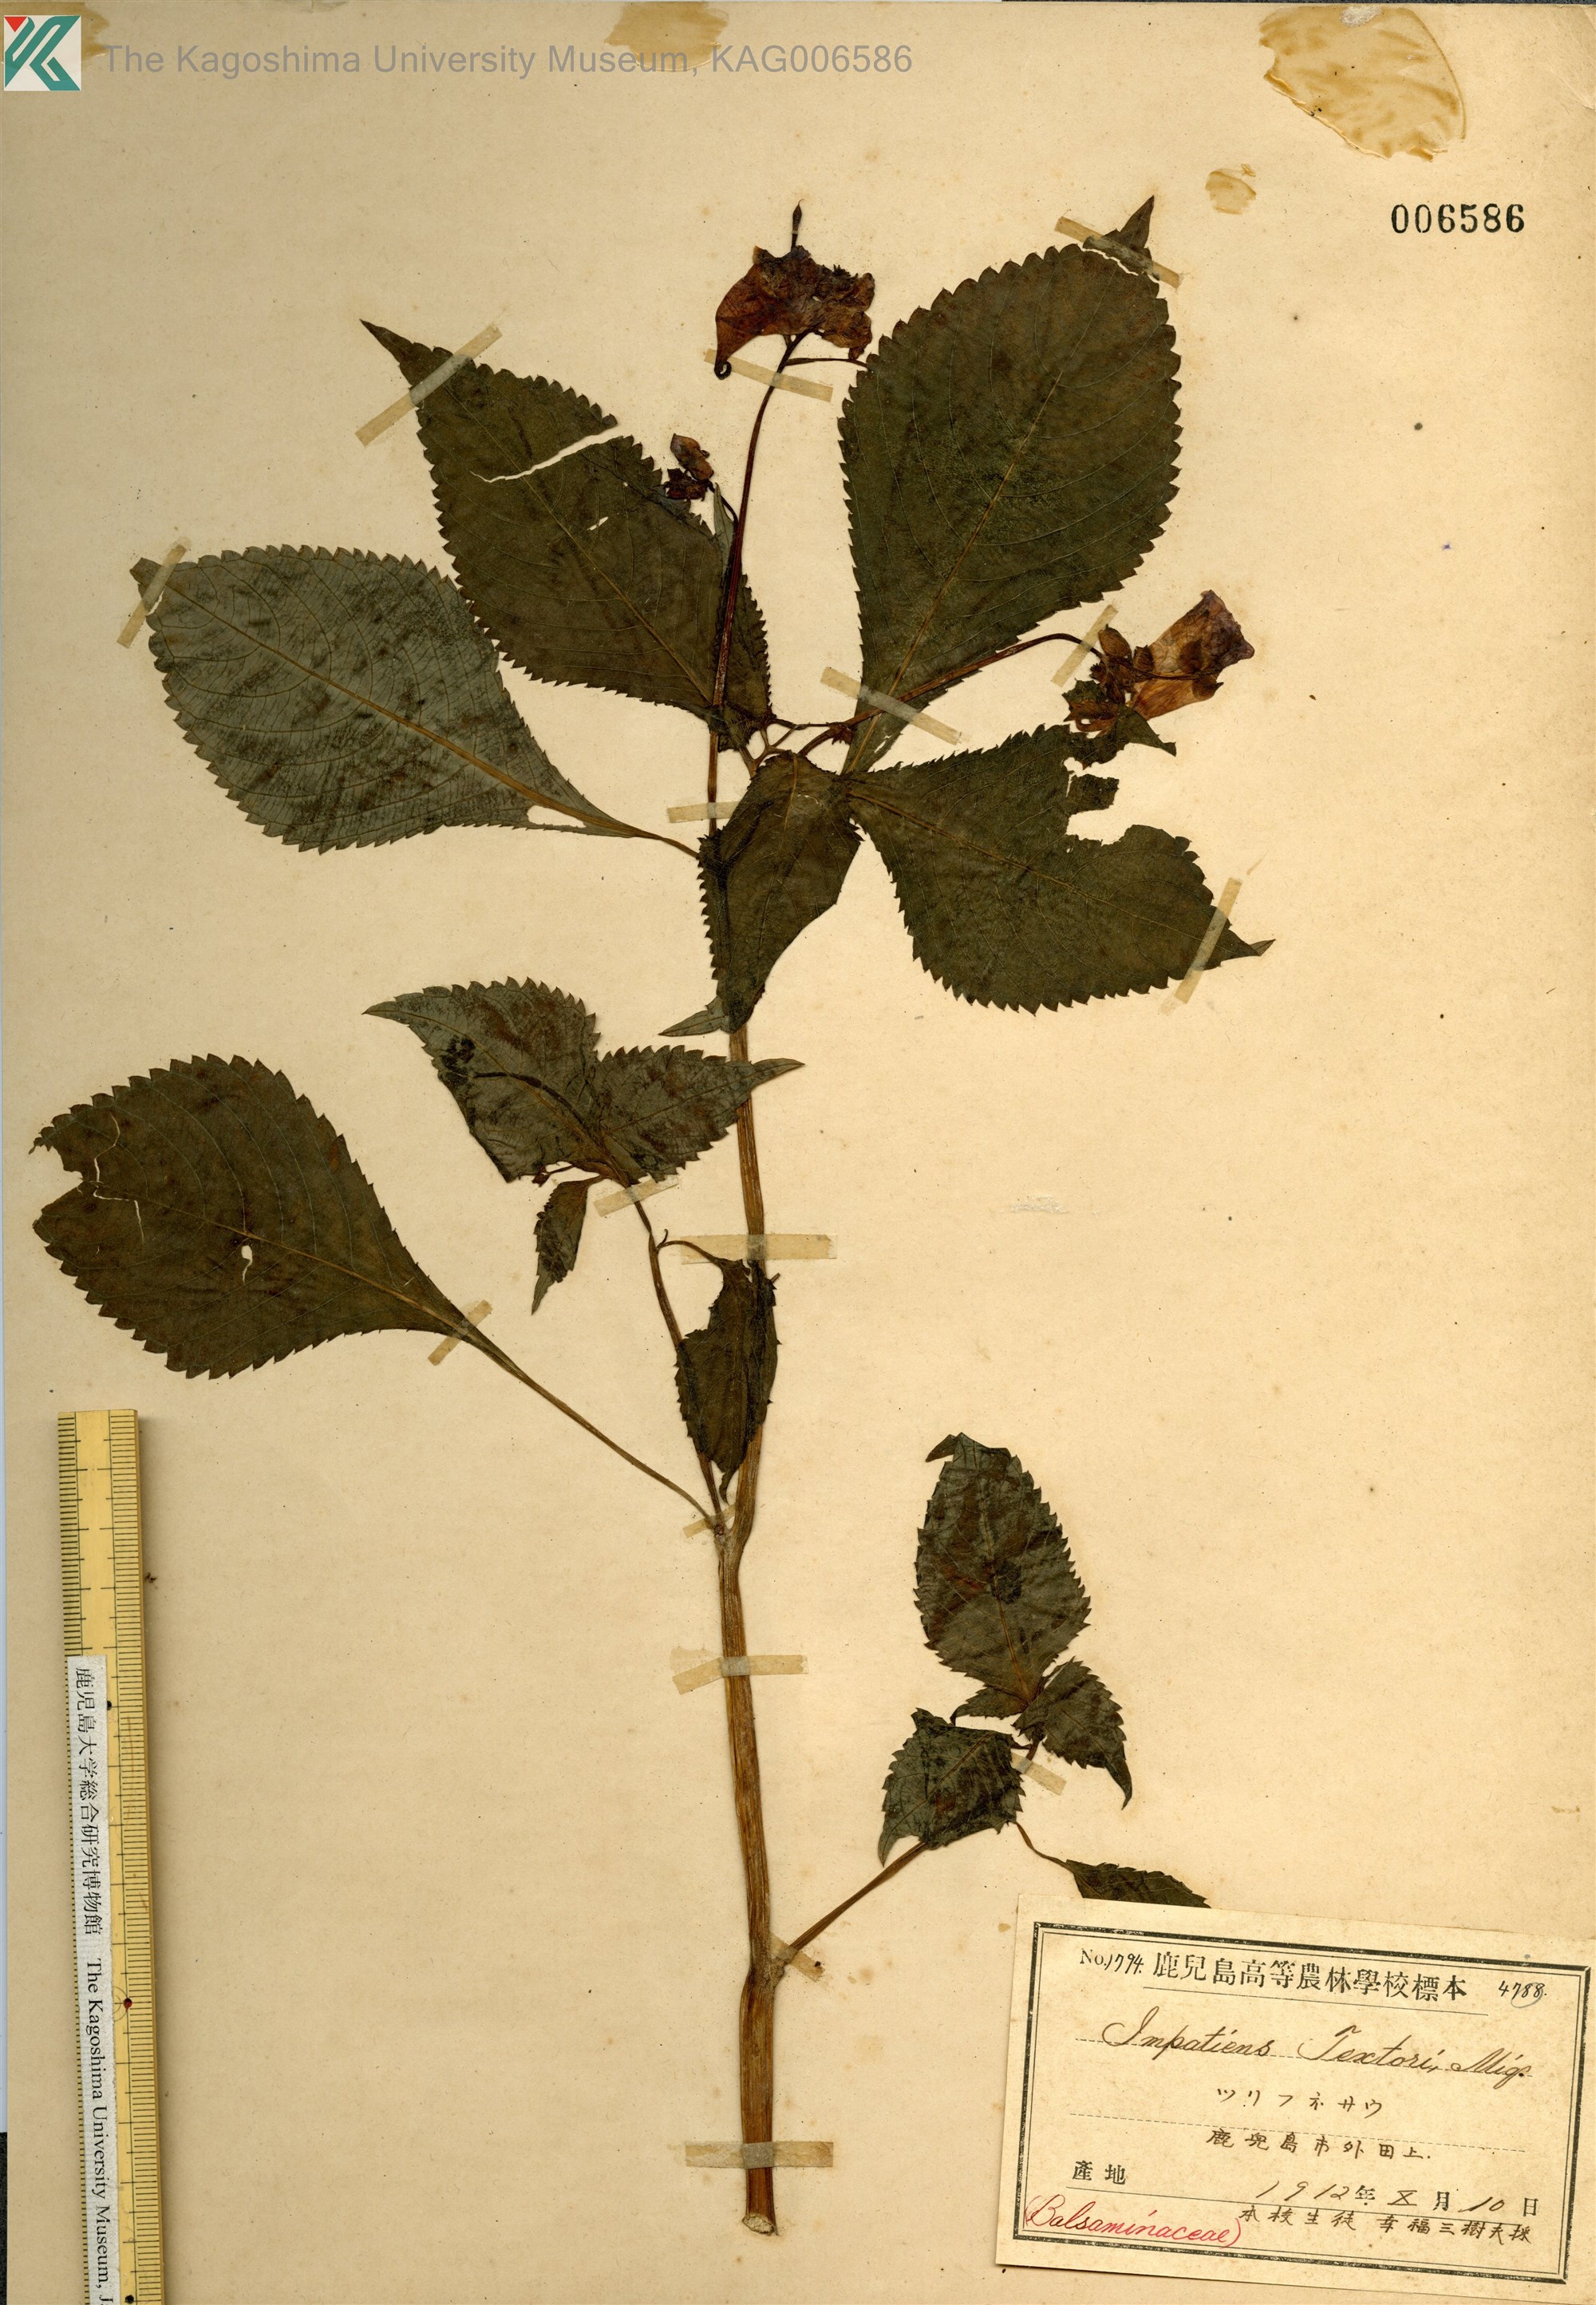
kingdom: Plantae
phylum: Tracheophyta
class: Magnoliopsida
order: Ericales
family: Balsaminaceae
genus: Impatiens
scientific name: Impatiens textorii
